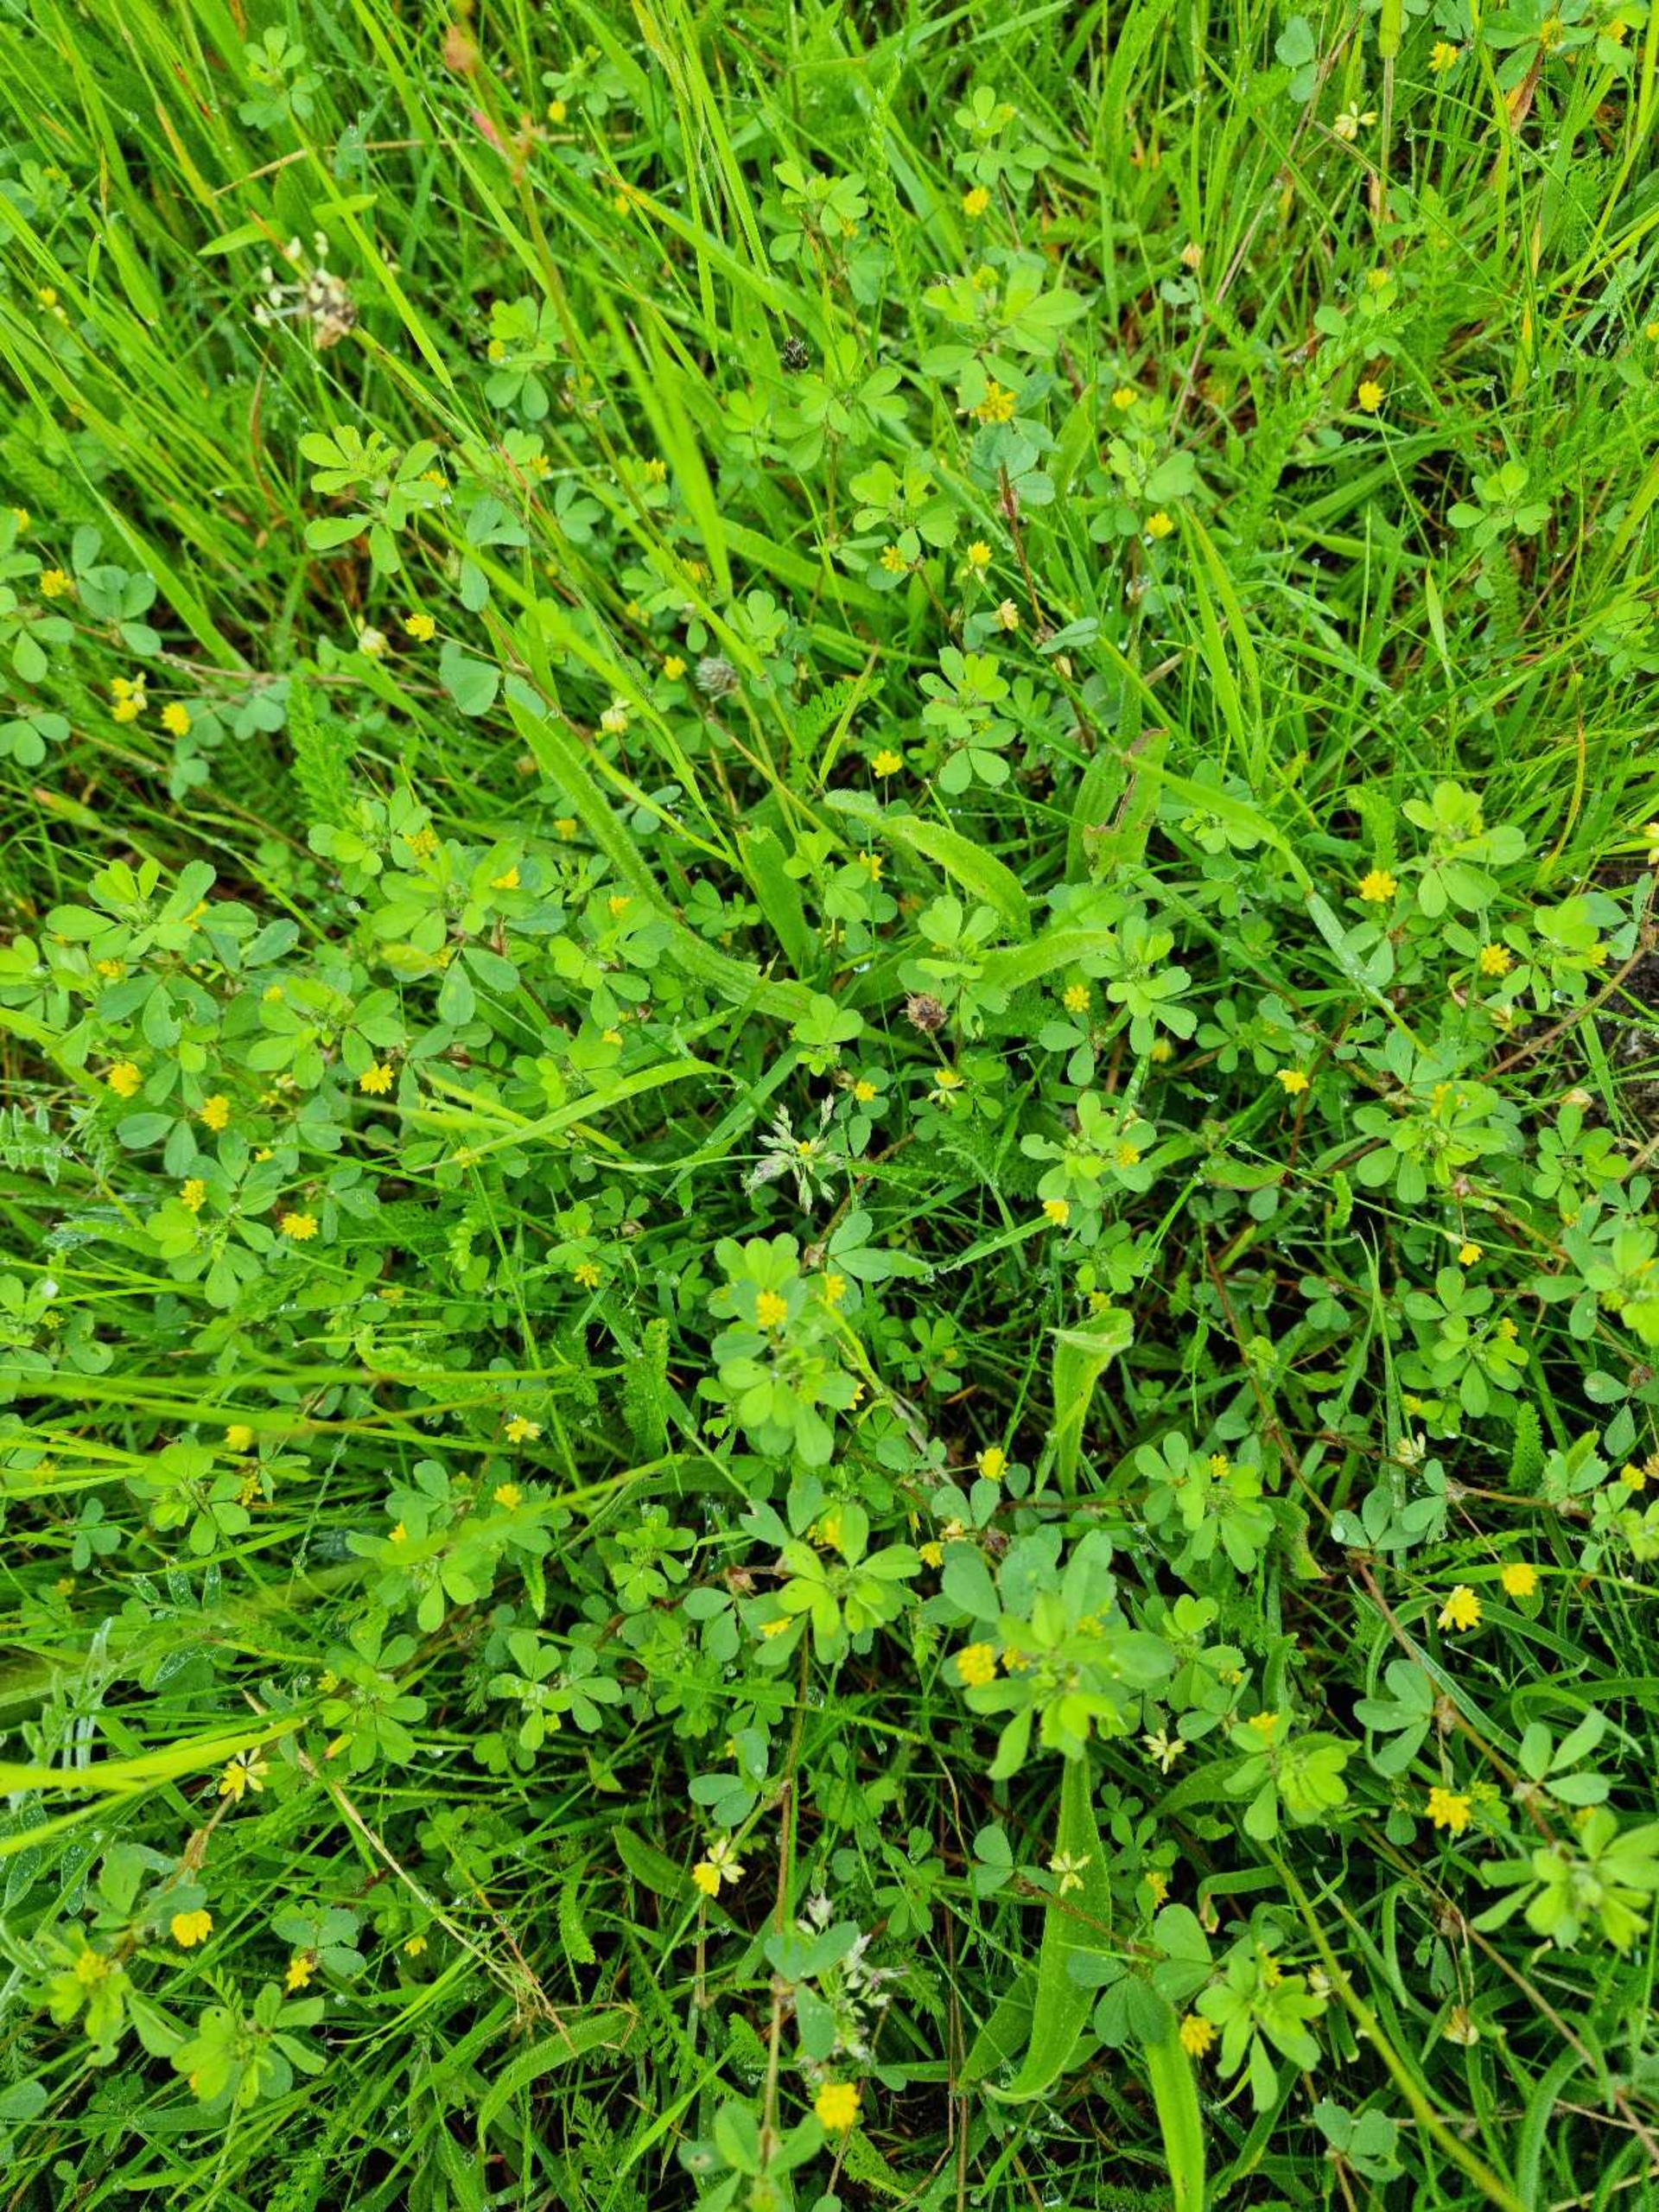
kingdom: Plantae
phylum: Tracheophyta
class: Magnoliopsida
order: Fabales
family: Fabaceae
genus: Trifolium
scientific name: Trifolium dubium
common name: Fin kløver
